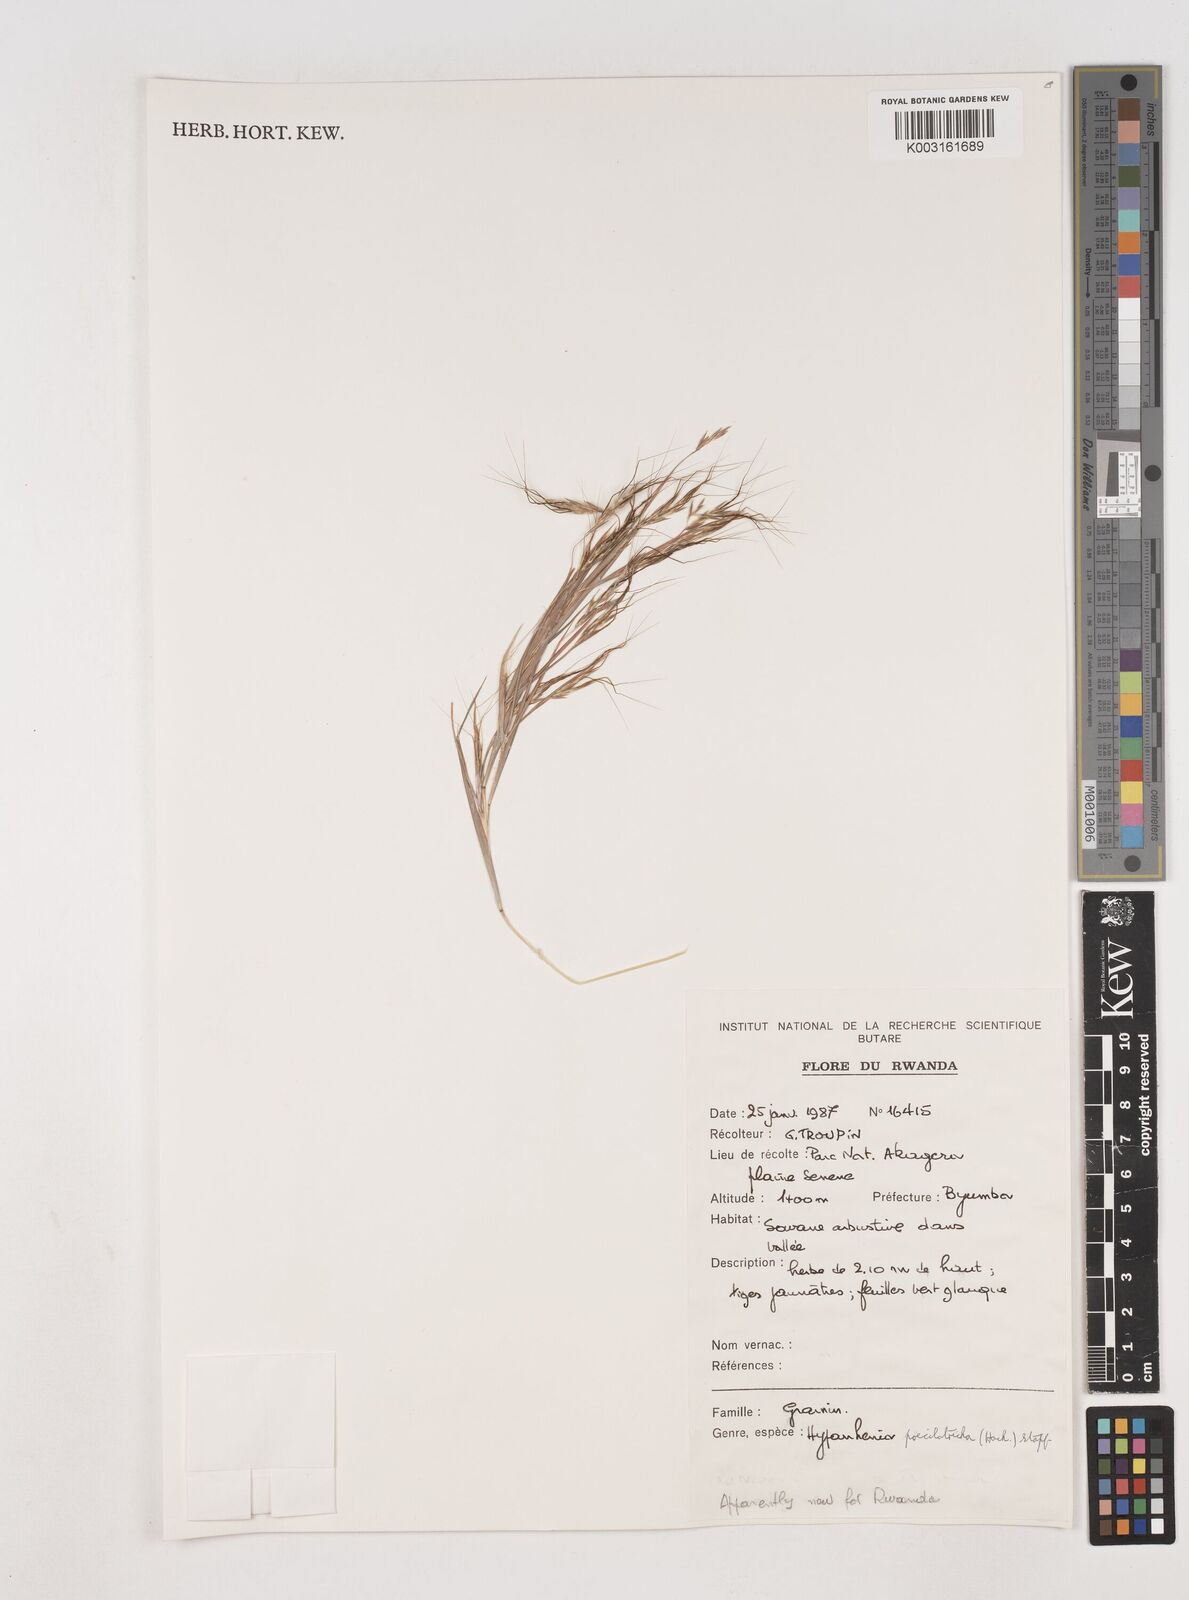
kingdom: Plantae
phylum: Tracheophyta
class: Liliopsida
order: Poales
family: Poaceae
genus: Hyparrhenia
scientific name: Hyparrhenia poecilotricha
